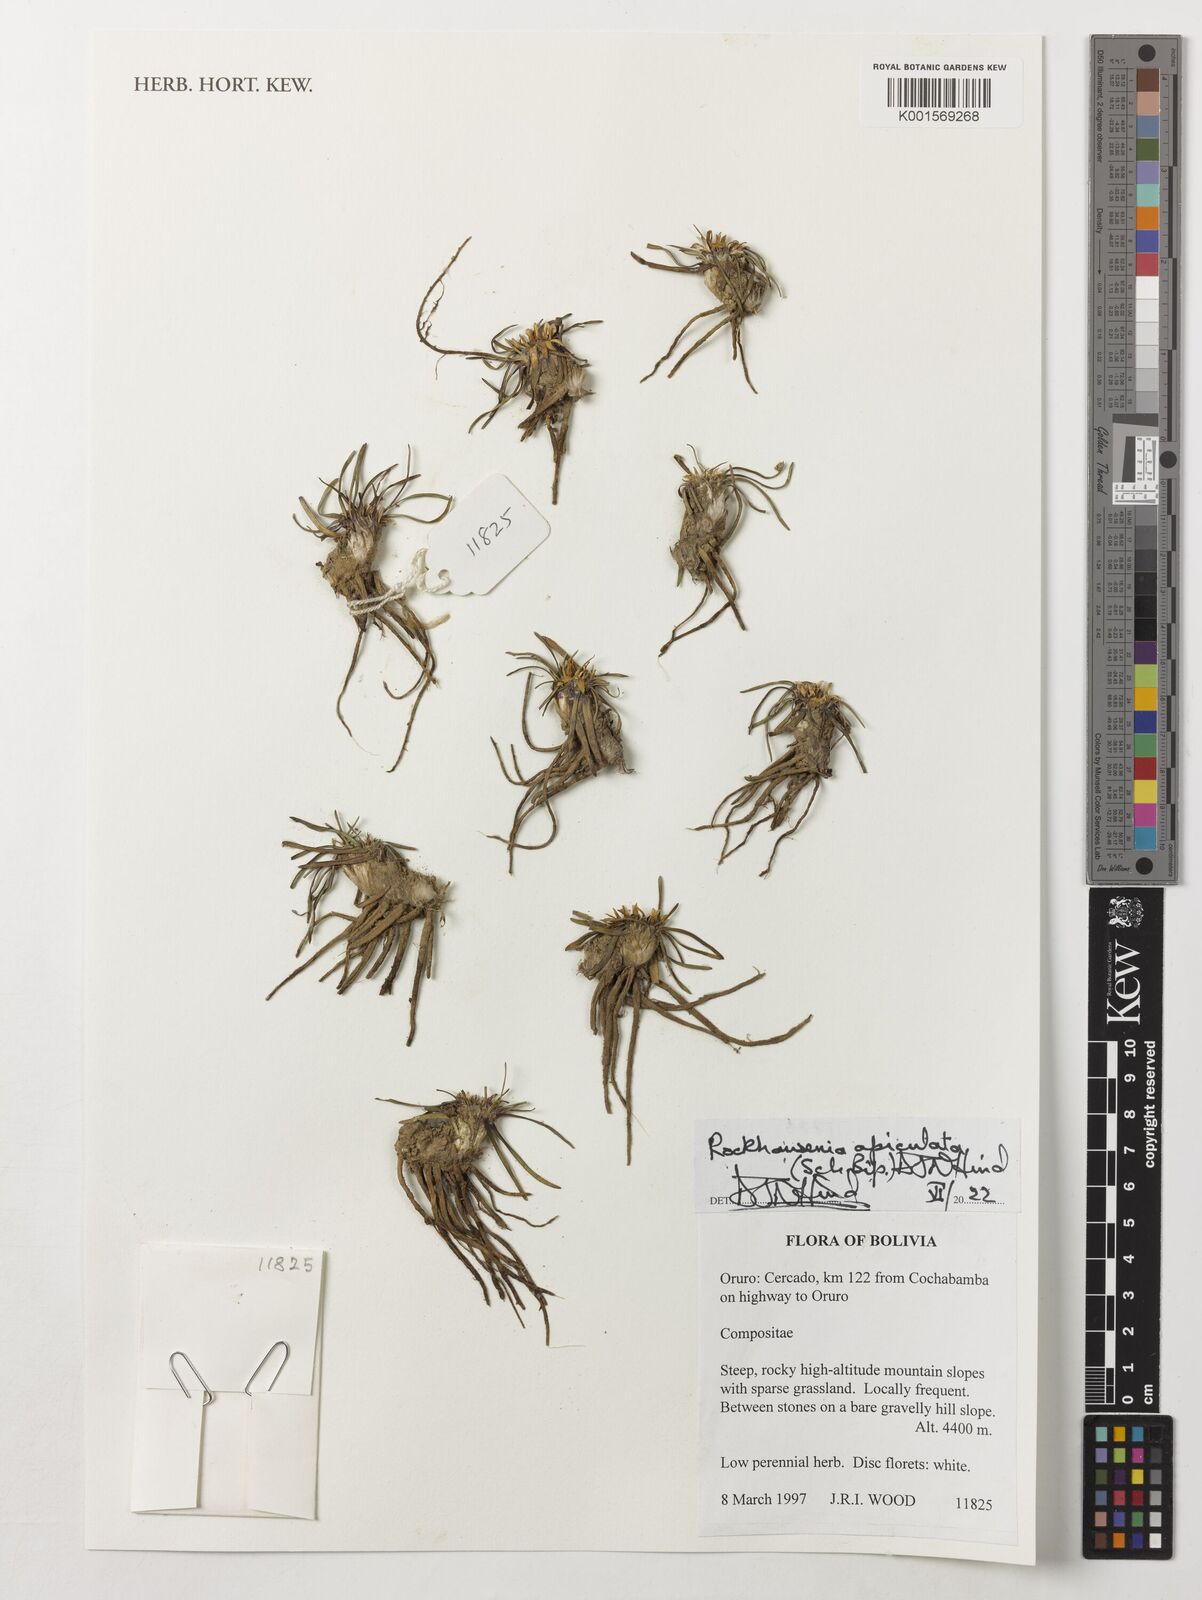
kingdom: Plantae
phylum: Tracheophyta
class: Magnoliopsida
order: Asterales
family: Asteraceae
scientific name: Asteraceae
